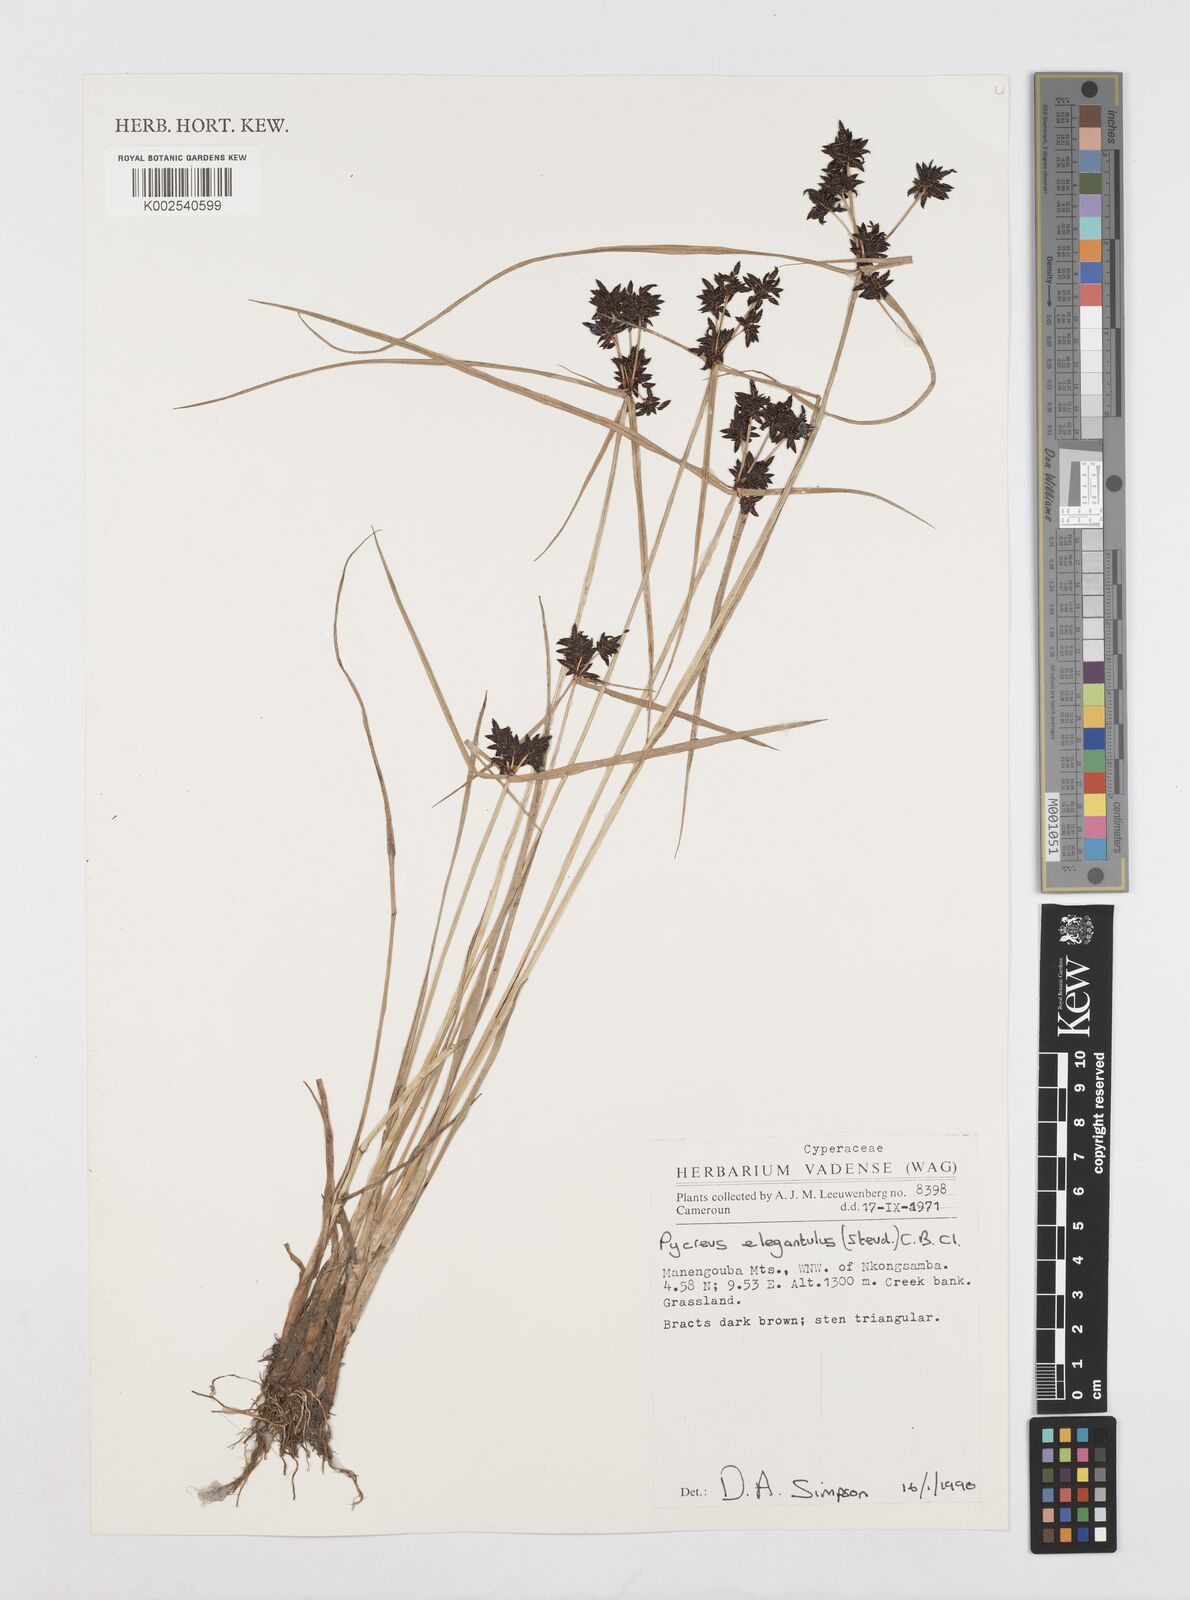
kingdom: Plantae
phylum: Tracheophyta
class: Liliopsida
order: Poales
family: Cyperaceae
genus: Cyperus
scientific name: Cyperus elegantulus
